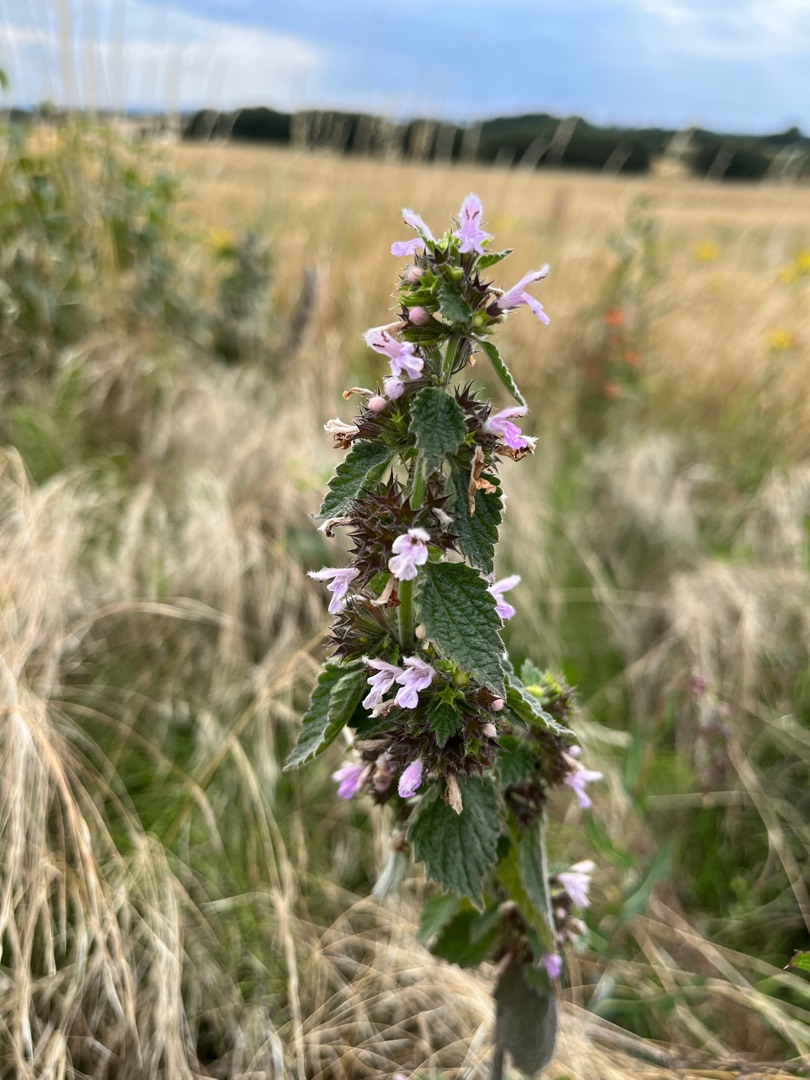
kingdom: Plantae
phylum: Tracheophyta
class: Magnoliopsida
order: Lamiales
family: Lamiaceae
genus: Ballota
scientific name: Ballota nigra
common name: Tandbæger
